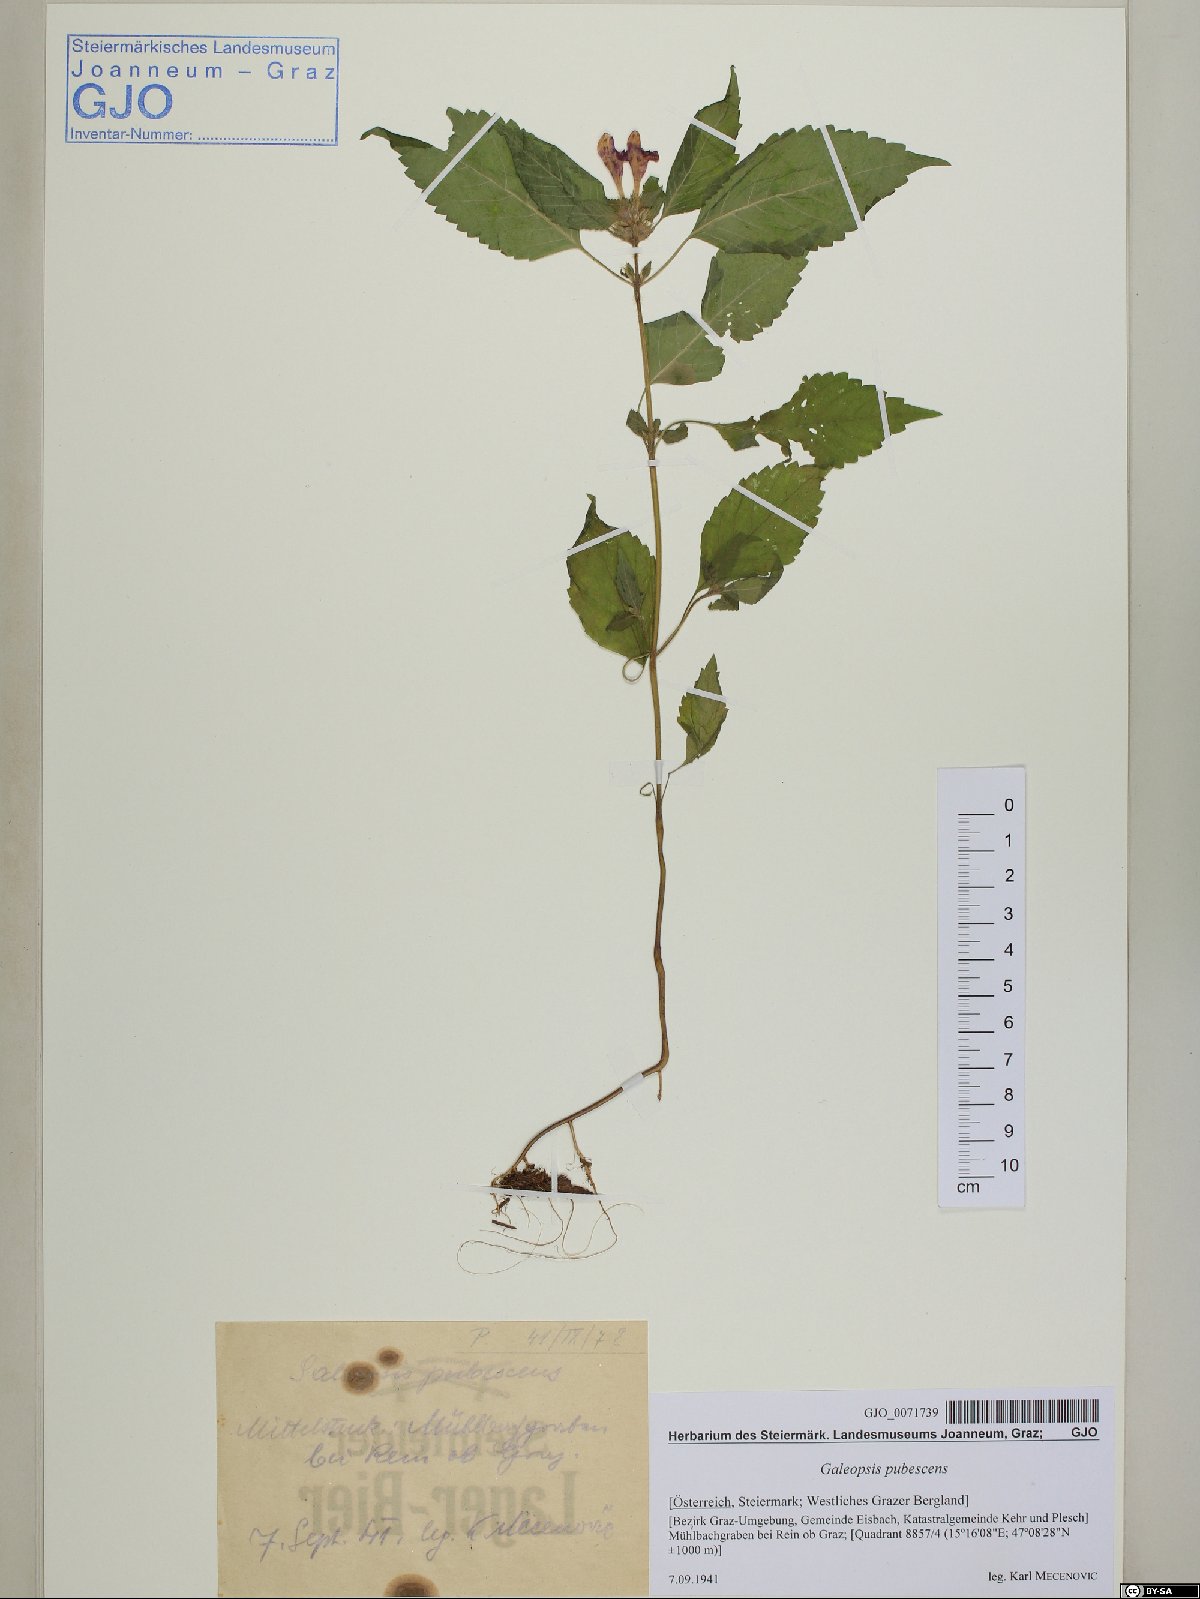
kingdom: Plantae
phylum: Tracheophyta
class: Magnoliopsida
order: Lamiales
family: Lamiaceae
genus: Galeopsis
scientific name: Galeopsis pubescens
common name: Downy hemp-nettle
